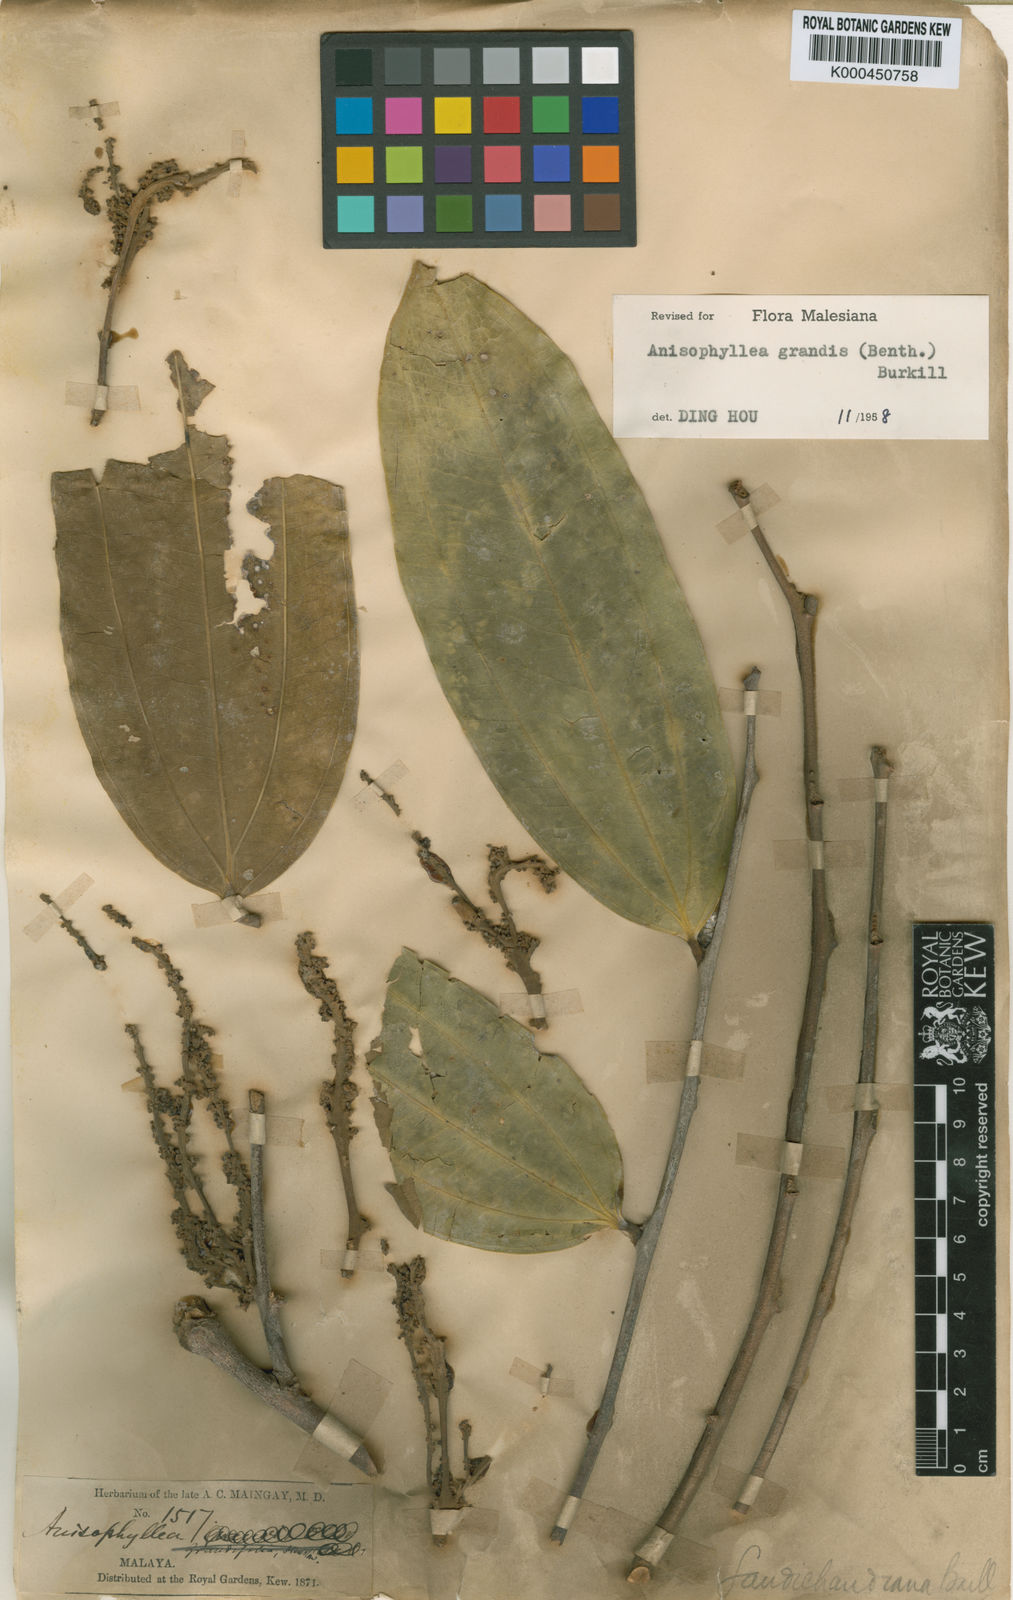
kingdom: Plantae
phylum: Tracheophyta
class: Magnoliopsida
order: Cucurbitales
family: Anisophylleaceae
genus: Anisophyllea
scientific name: Anisophyllea grandis
